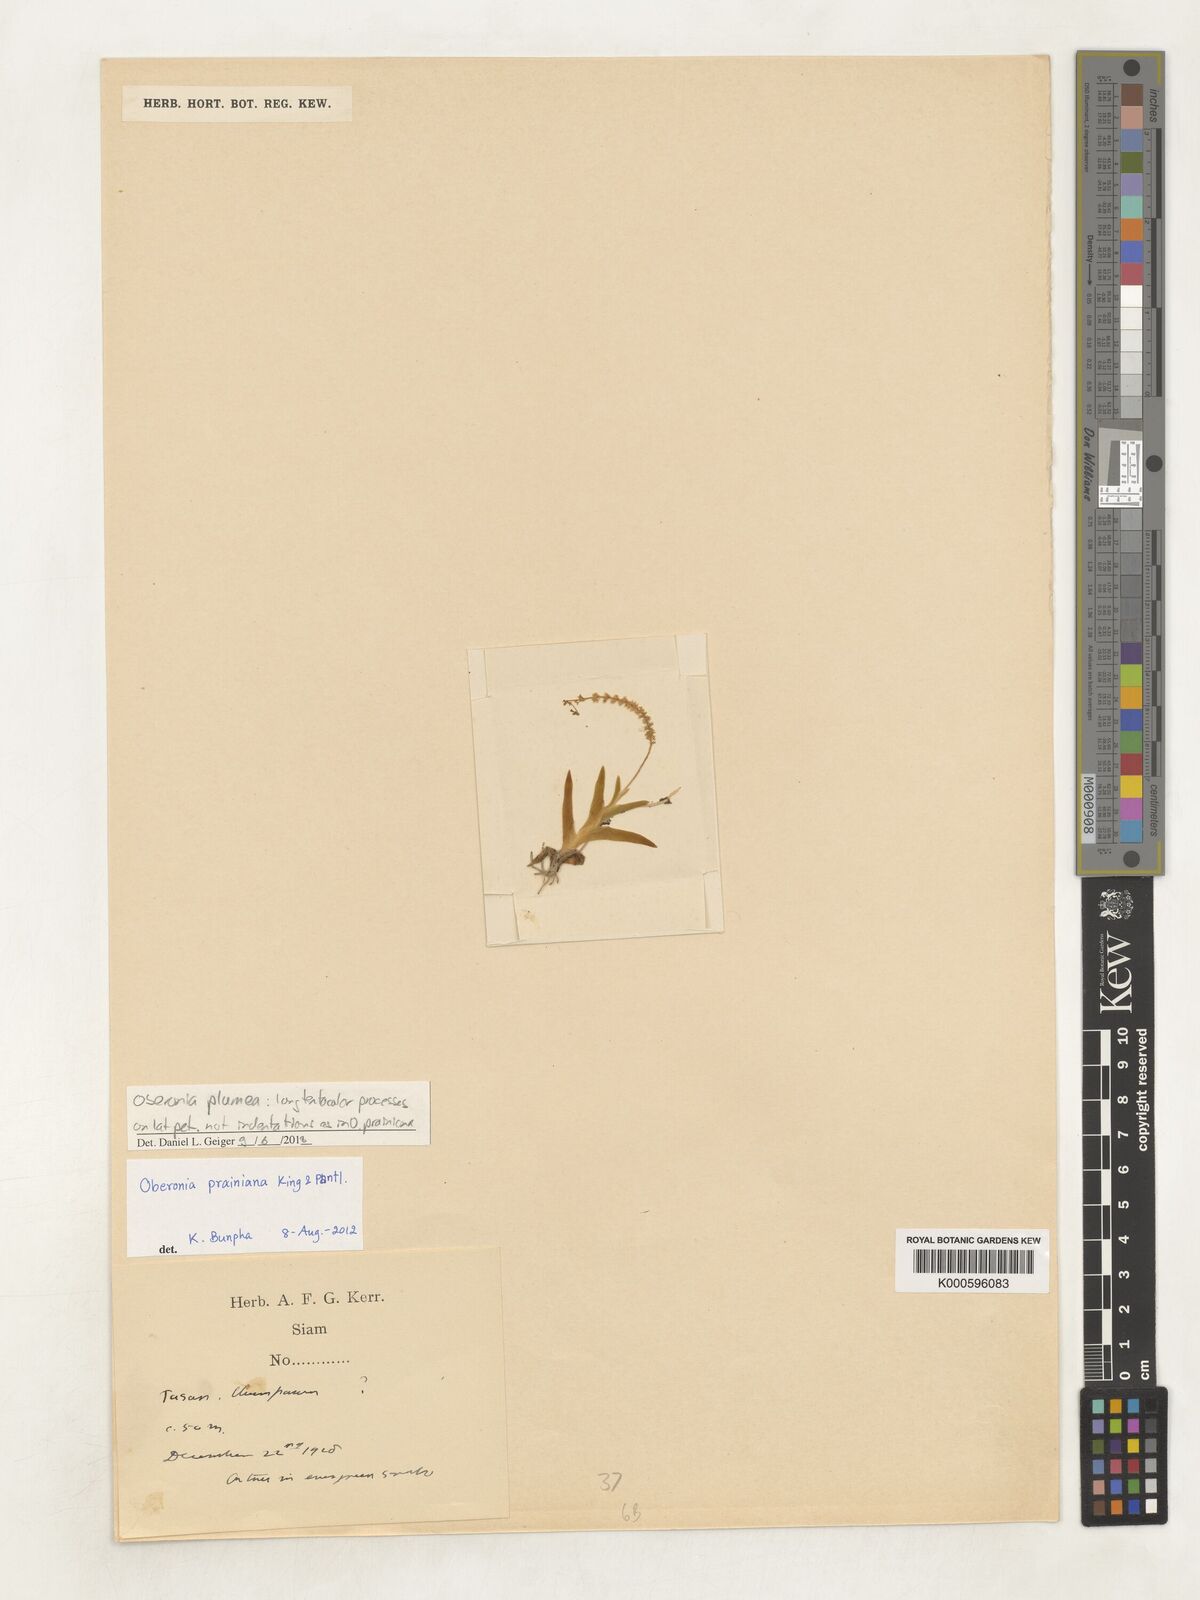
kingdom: Plantae
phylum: Tracheophyta
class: Liliopsida
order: Asparagales
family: Orchidaceae
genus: Oberonia
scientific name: Oberonia plumea
